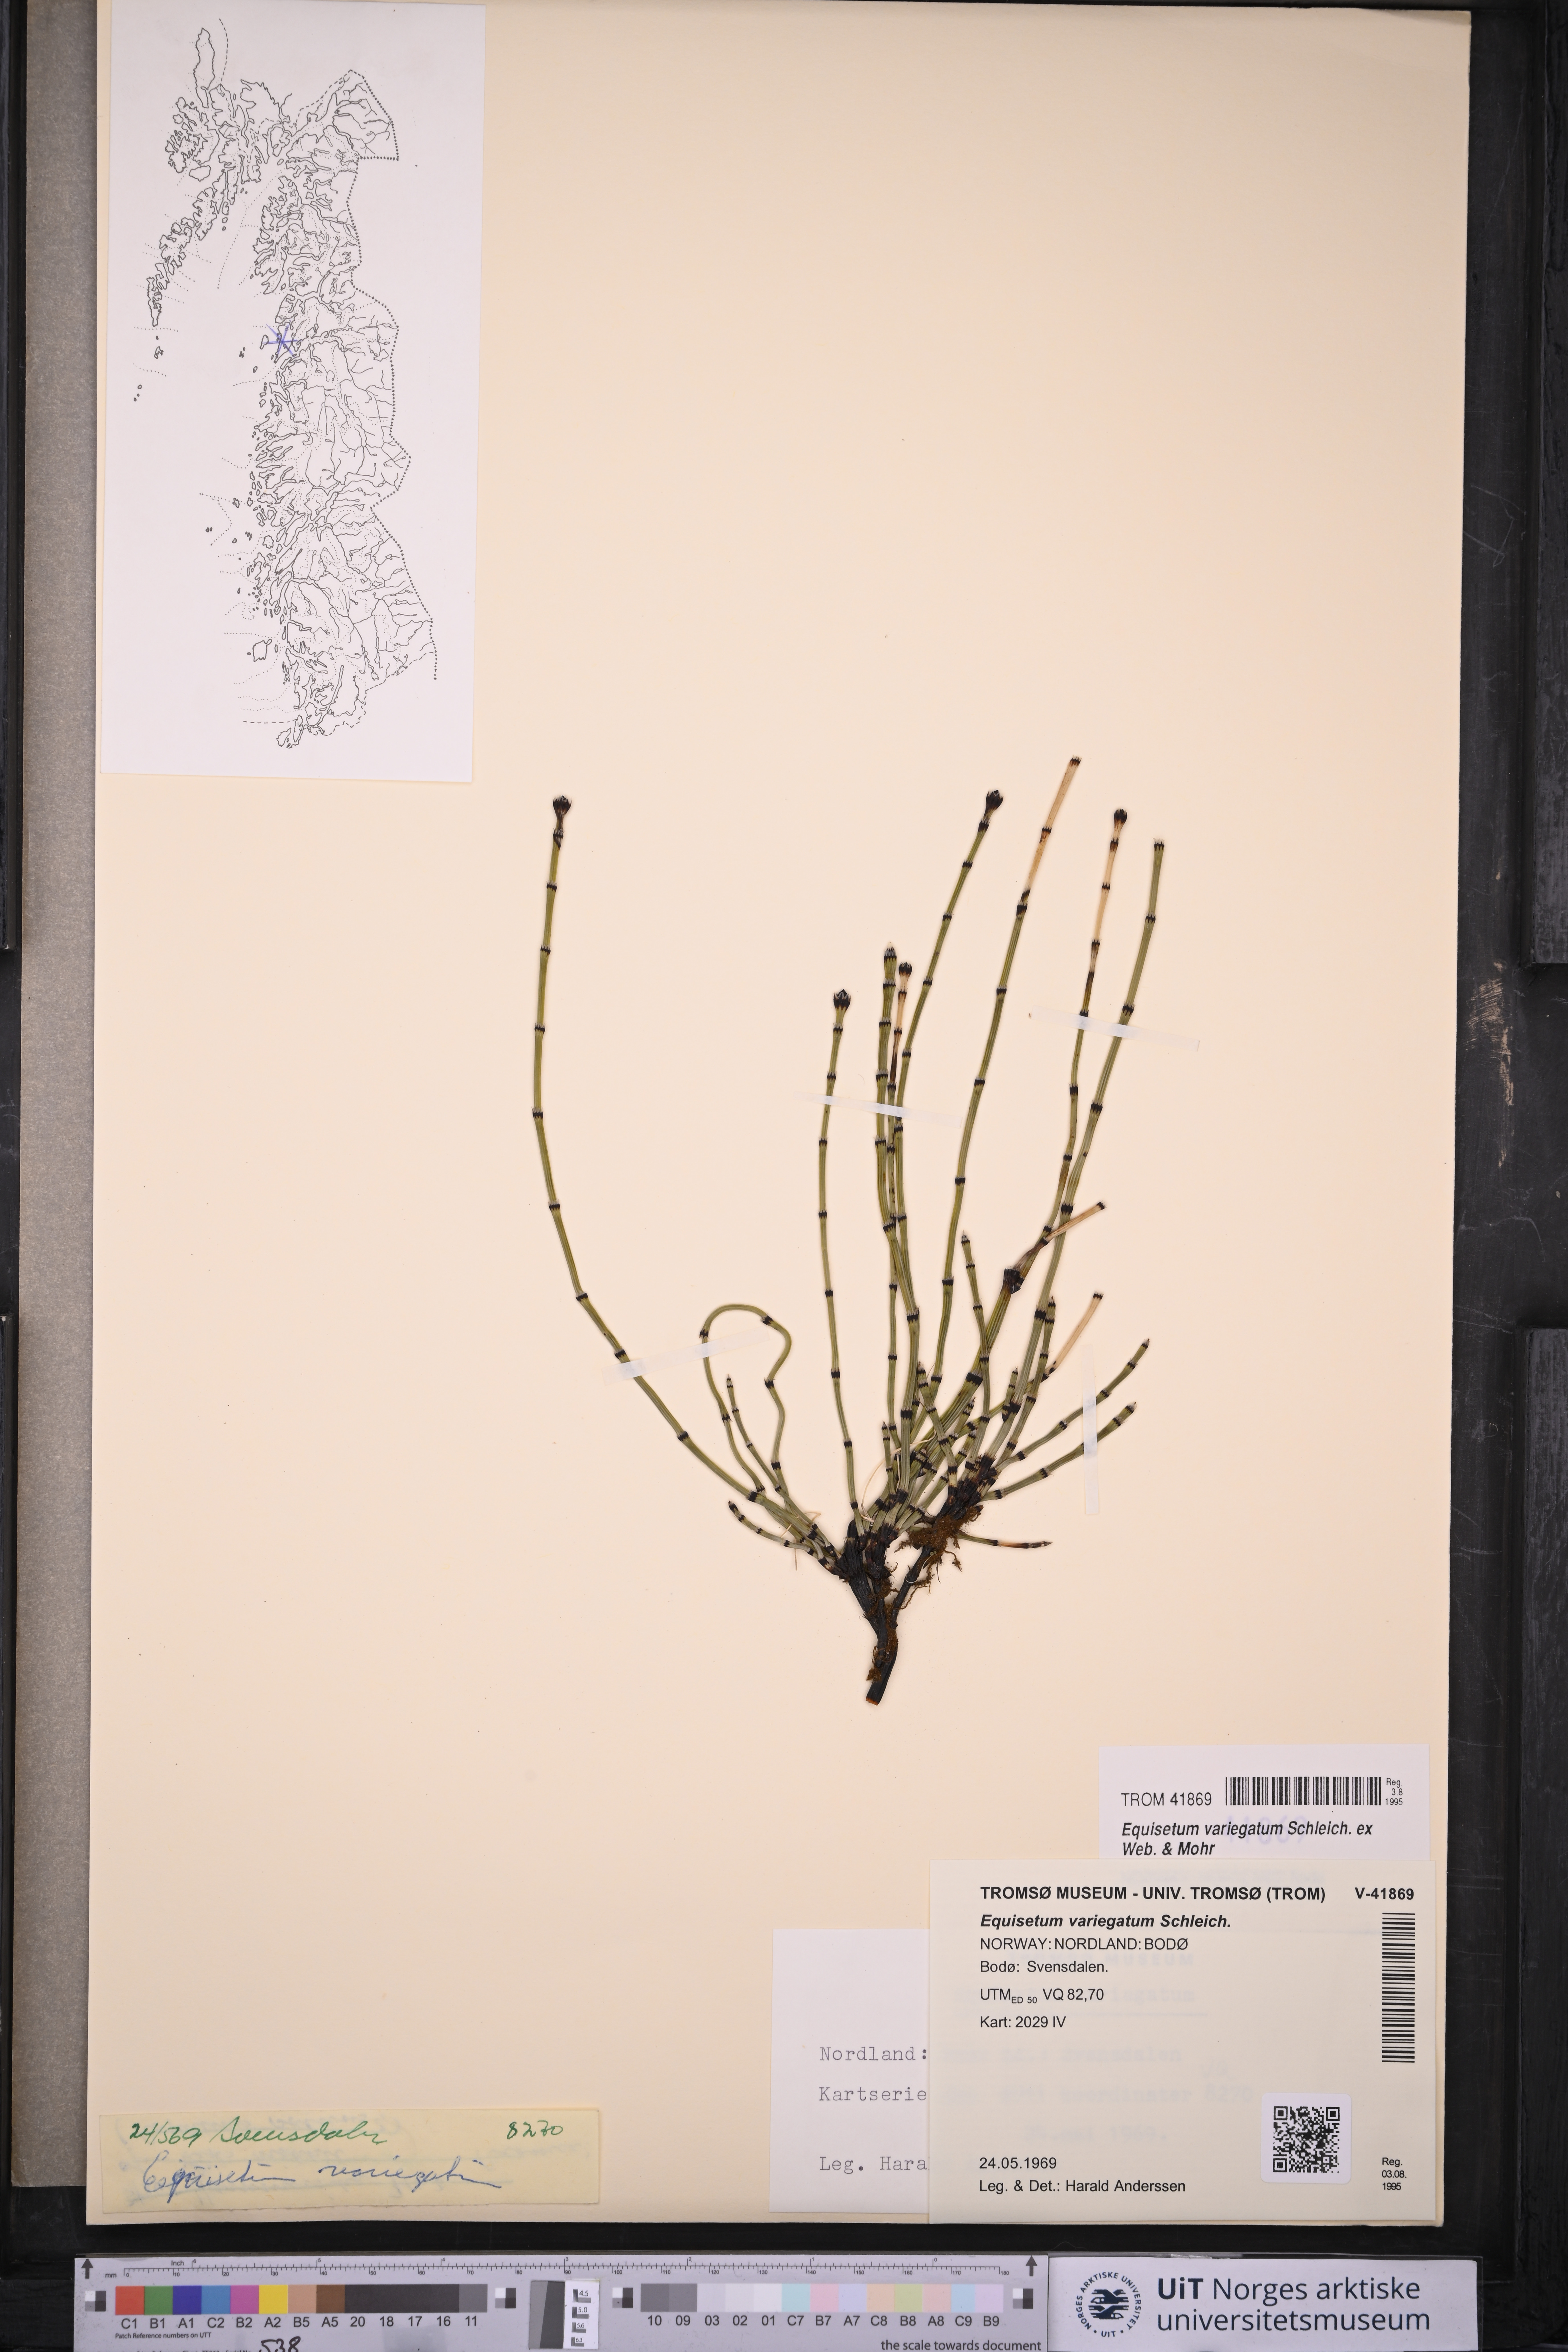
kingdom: Plantae
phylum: Tracheophyta
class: Polypodiopsida
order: Equisetales
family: Equisetaceae
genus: Equisetum
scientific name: Equisetum variegatum
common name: Variegated horsetail
